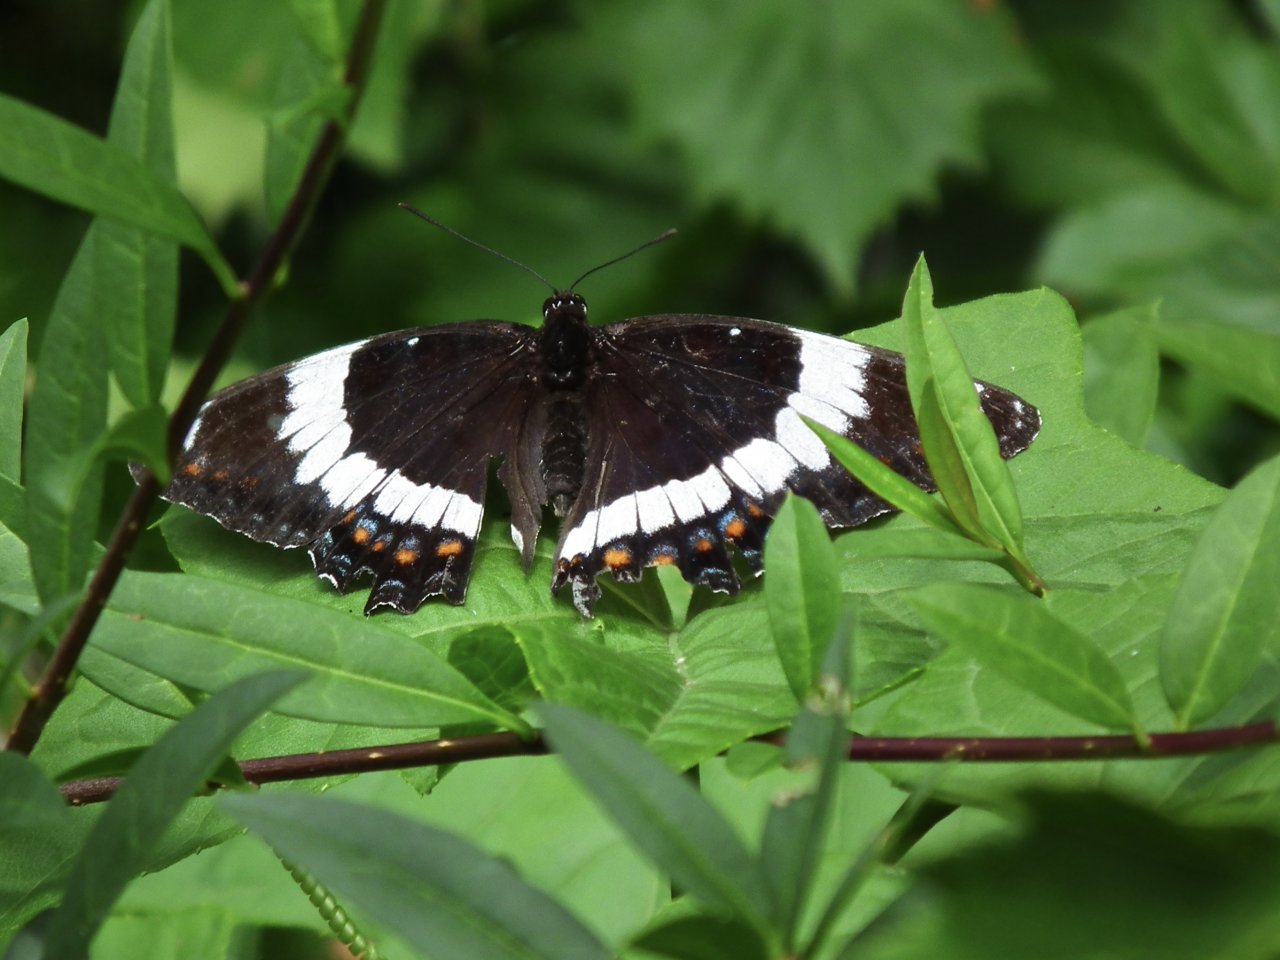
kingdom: Animalia
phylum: Arthropoda
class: Insecta
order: Lepidoptera
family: Nymphalidae
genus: Limenitis
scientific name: Limenitis arthemis
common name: Red-spotted Admiral
